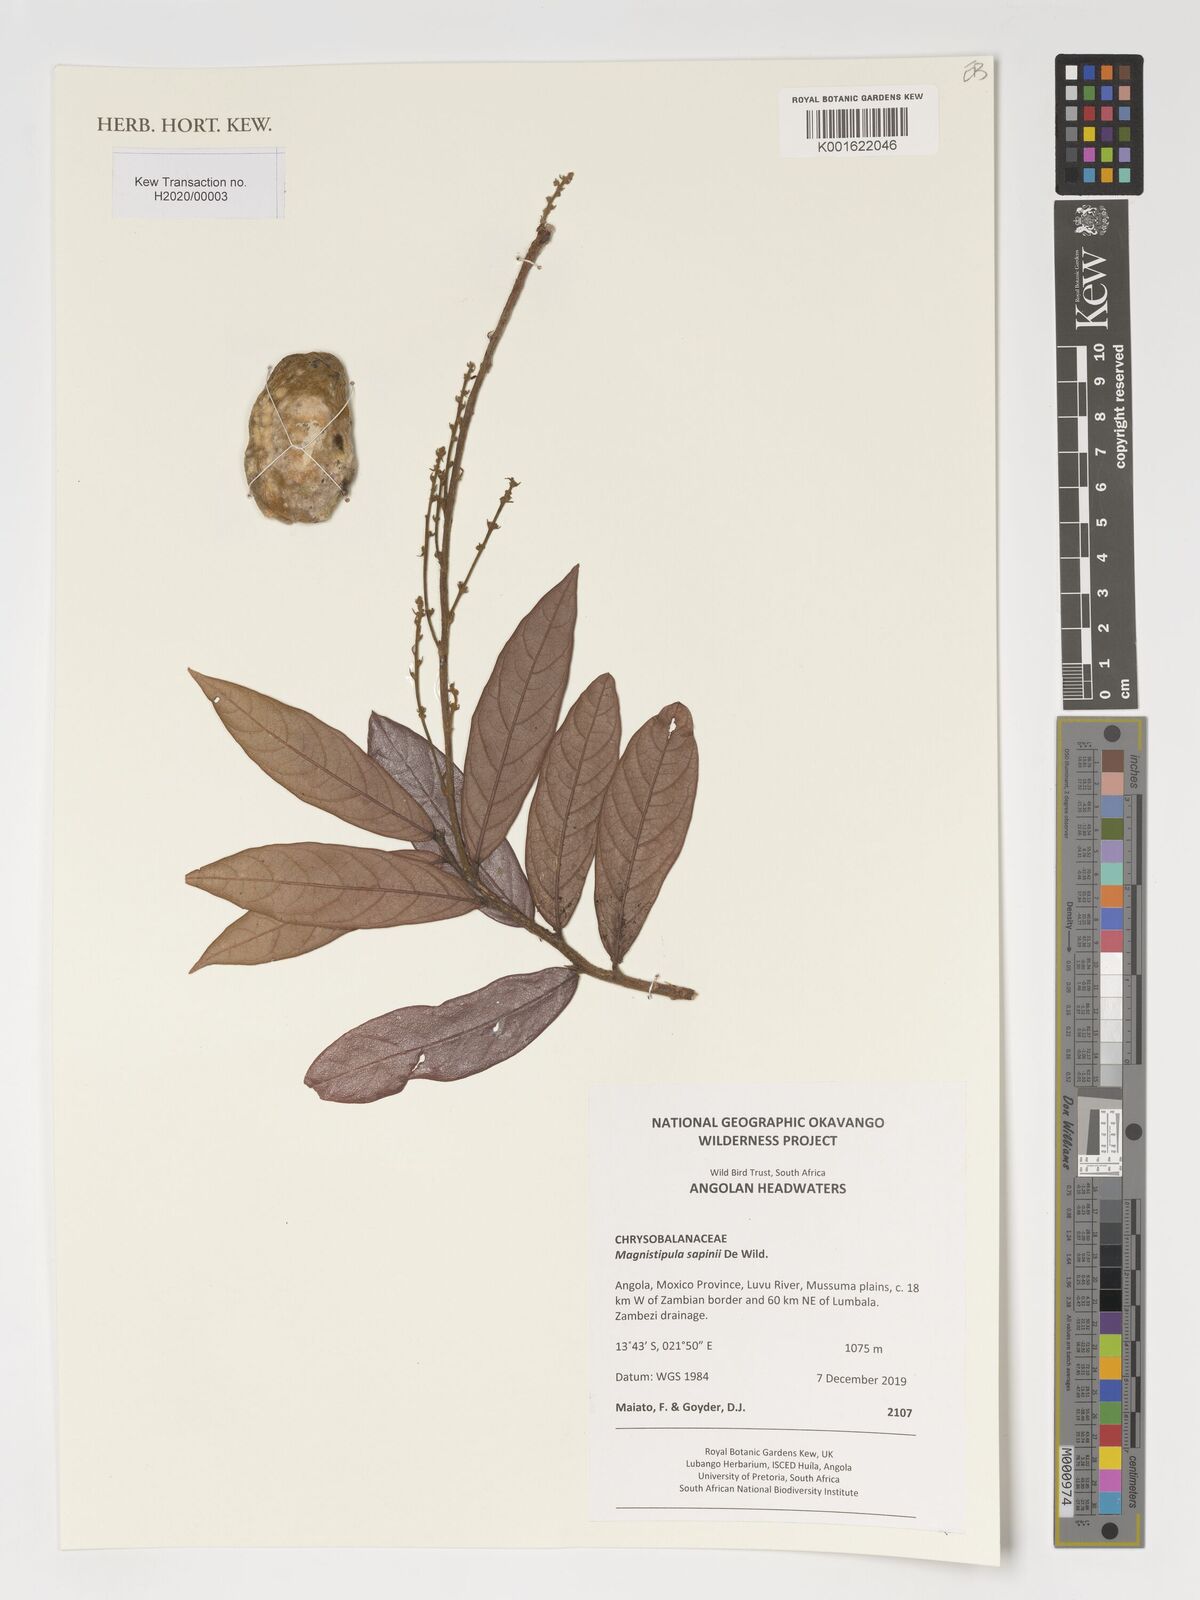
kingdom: Plantae
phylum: Tracheophyta
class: Magnoliopsida
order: Malpighiales
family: Chrysobalanaceae
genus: Magnistipula
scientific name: Magnistipula sapinii
